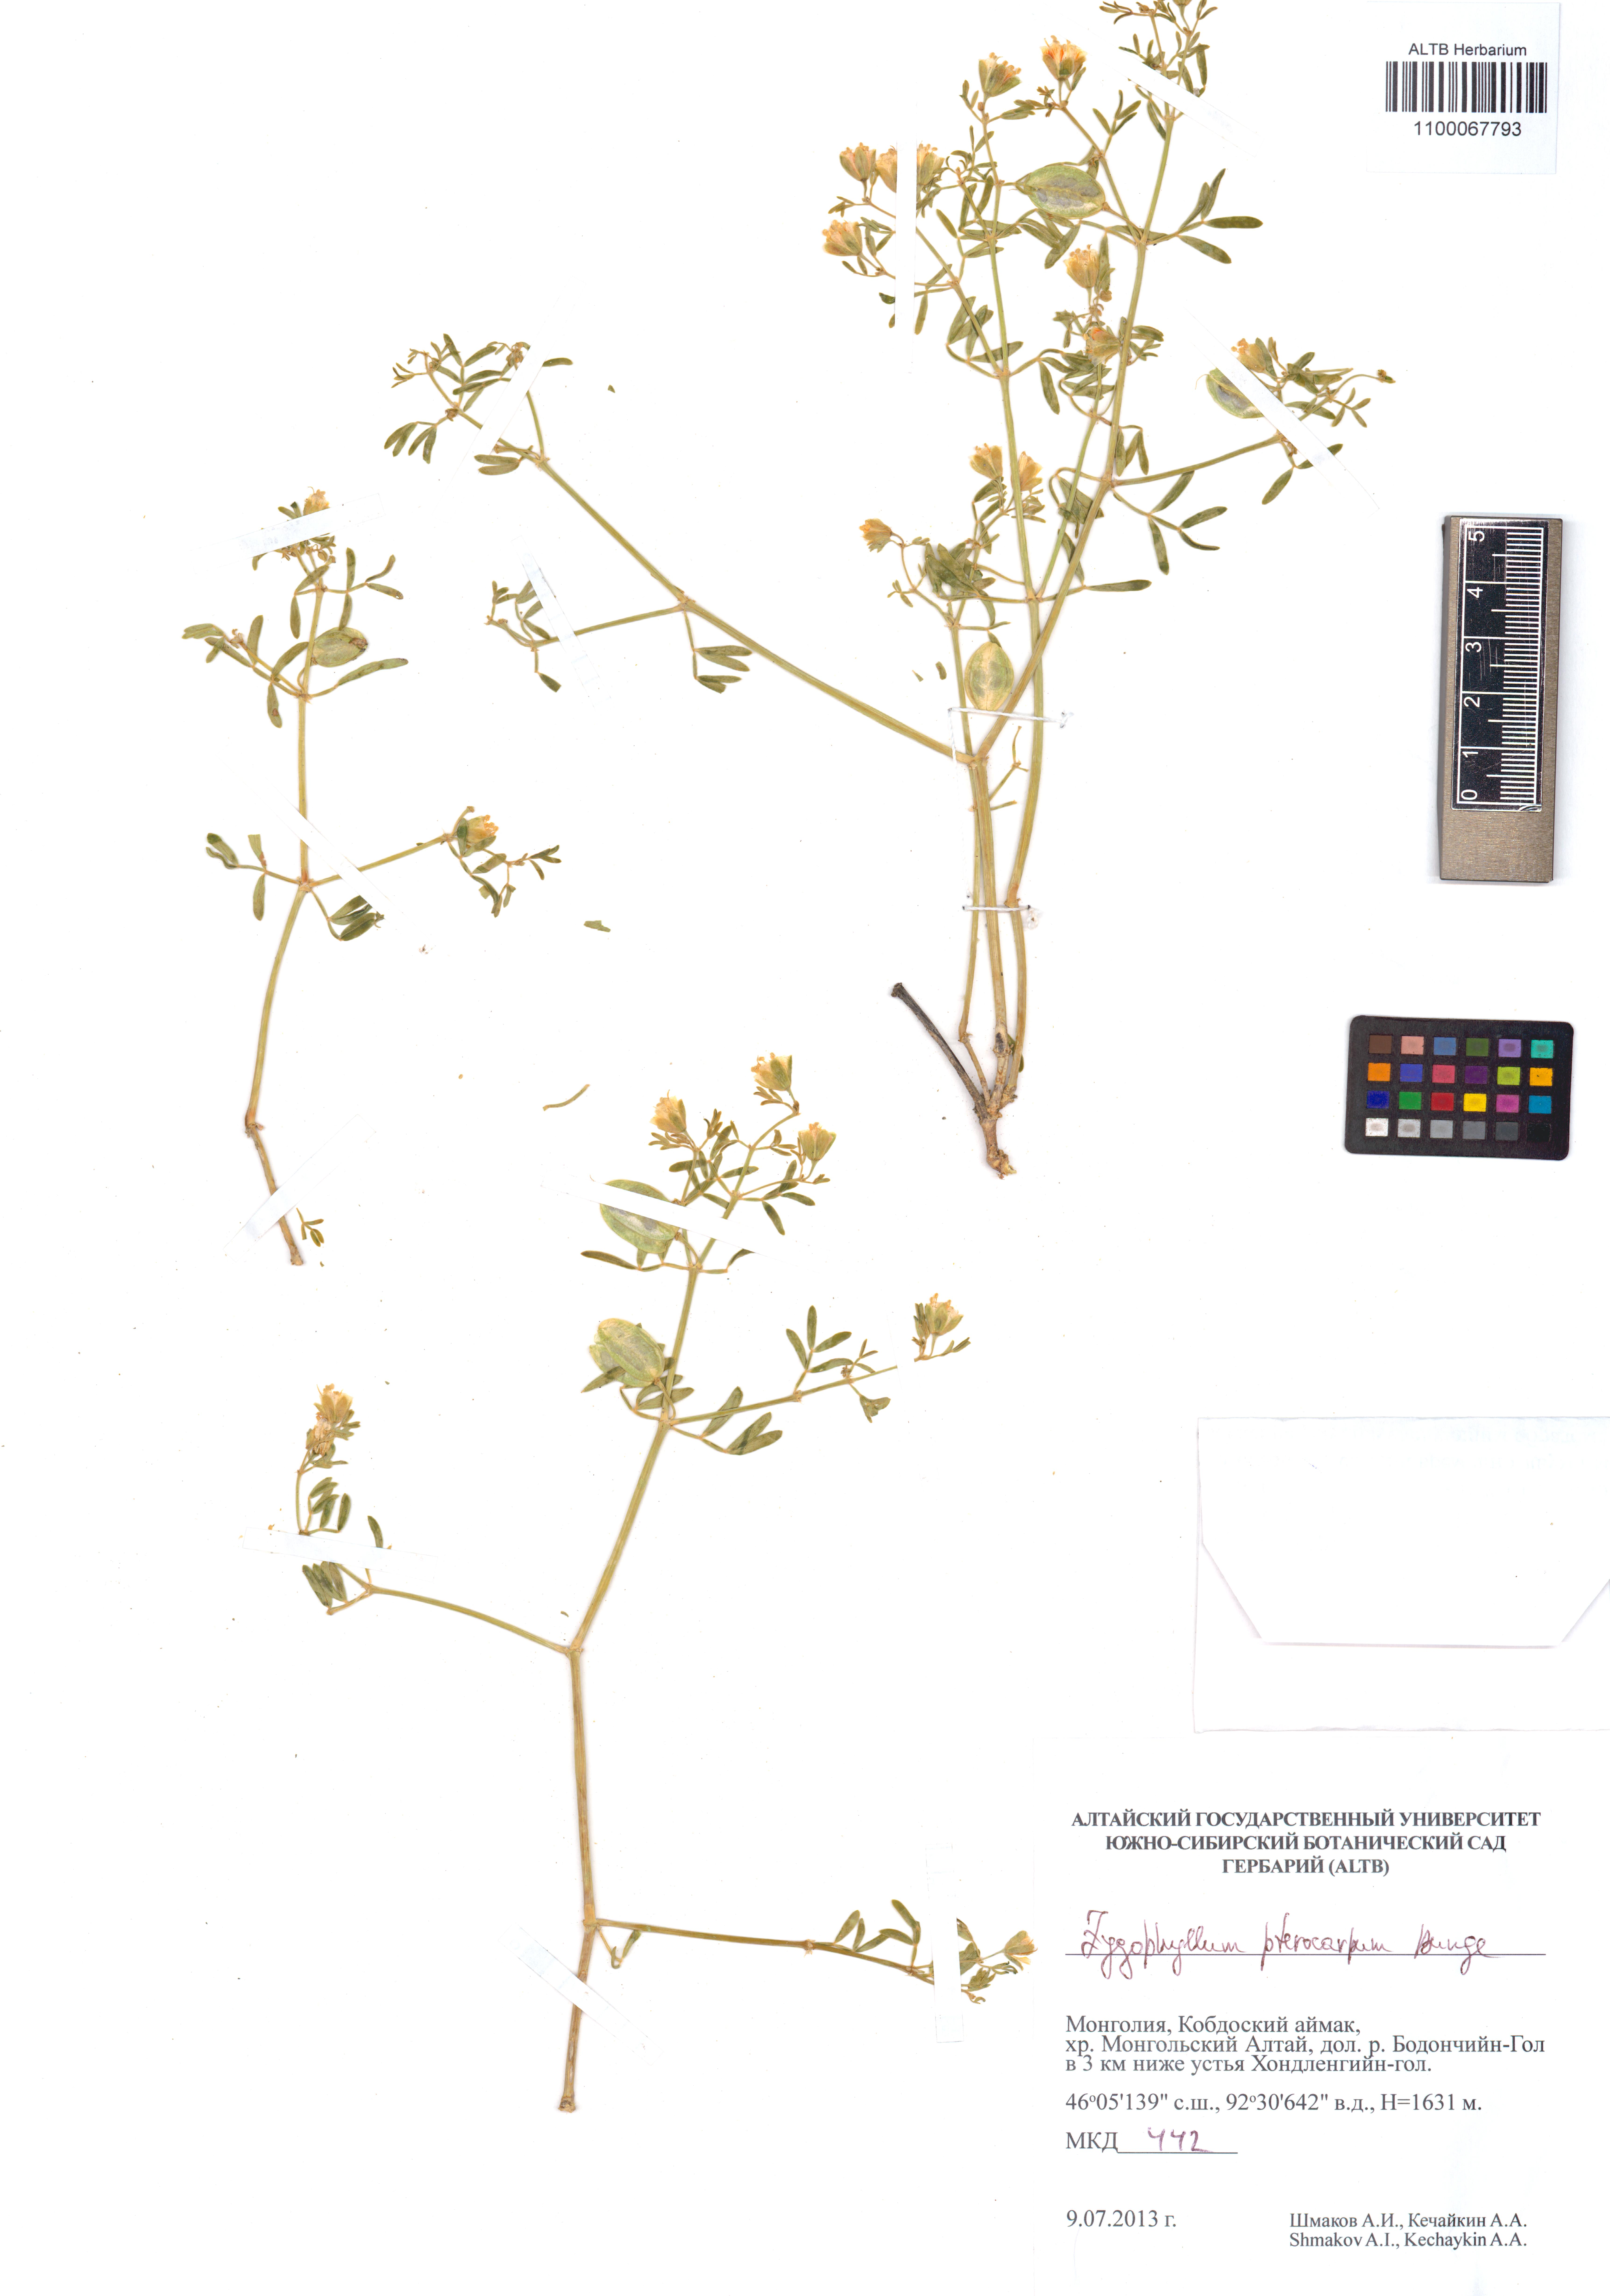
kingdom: Plantae
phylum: Tracheophyta
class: Magnoliopsida
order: Zygophyllales
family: Zygophyllaceae
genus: Zygophyllum
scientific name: Zygophyllum pterocarpum
